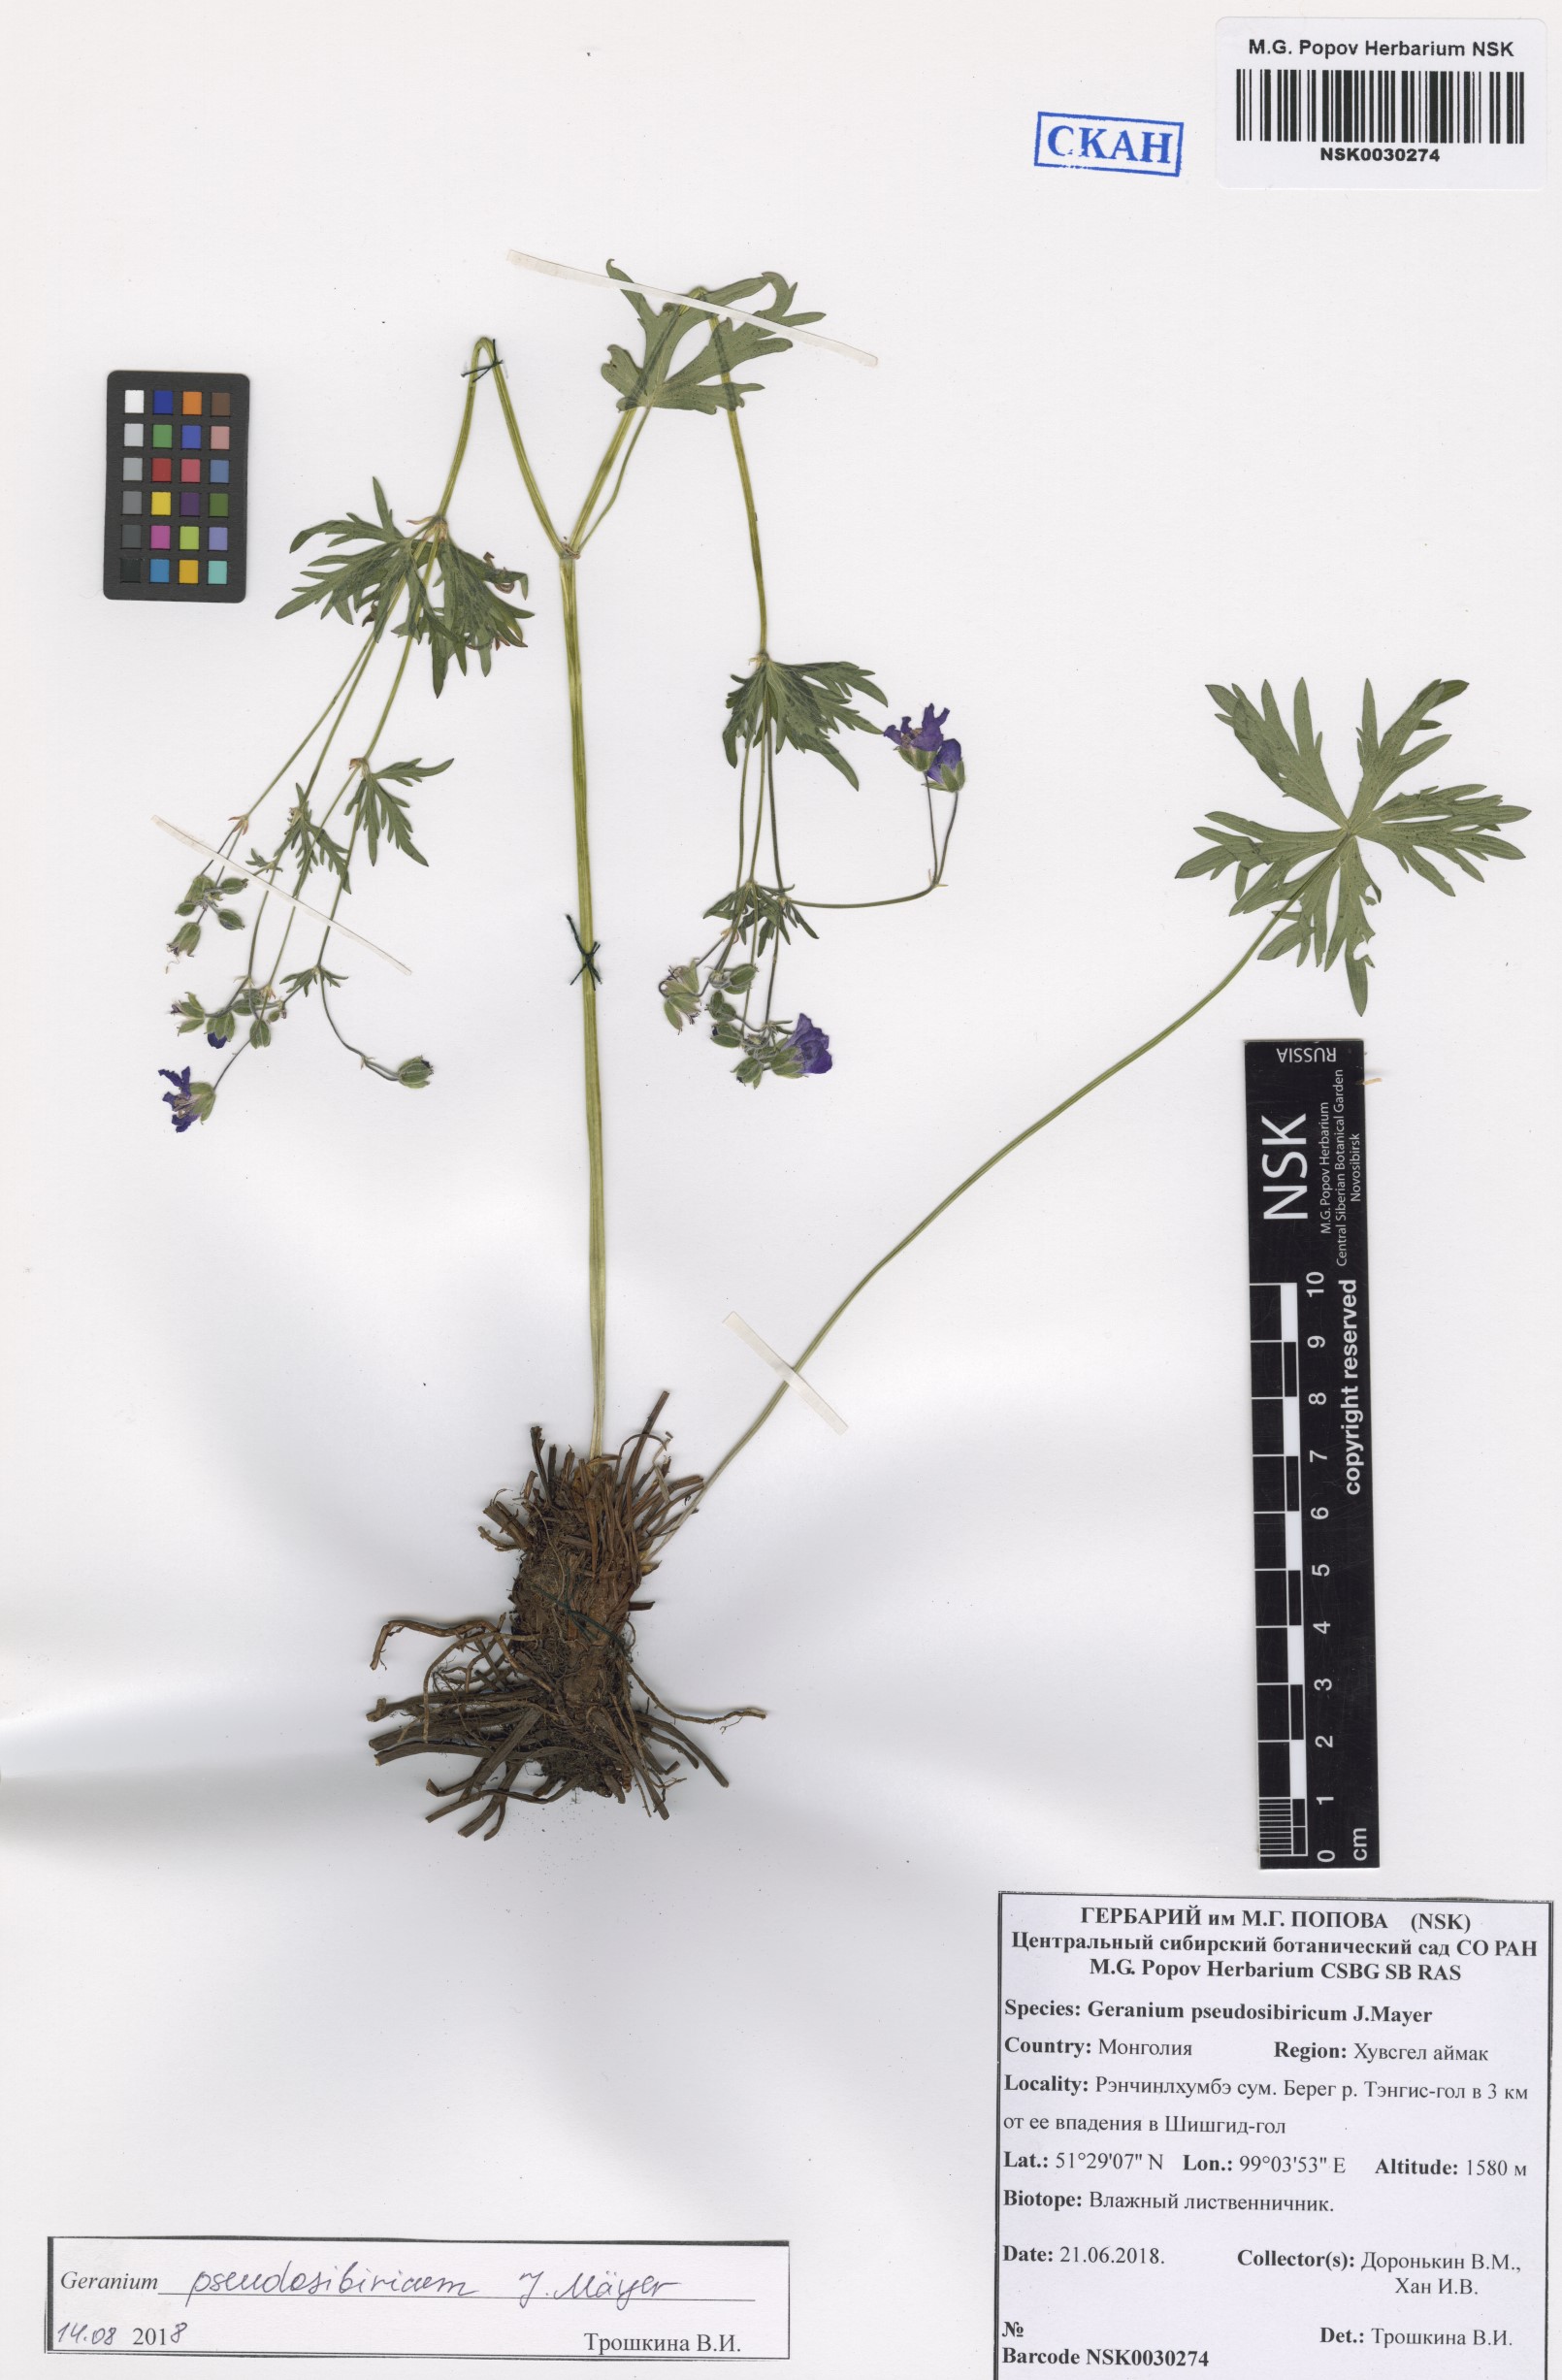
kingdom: Plantae
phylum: Tracheophyta
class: Magnoliopsida
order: Geraniales
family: Geraniaceae
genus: Geranium
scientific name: Geranium pseudosibiricum
